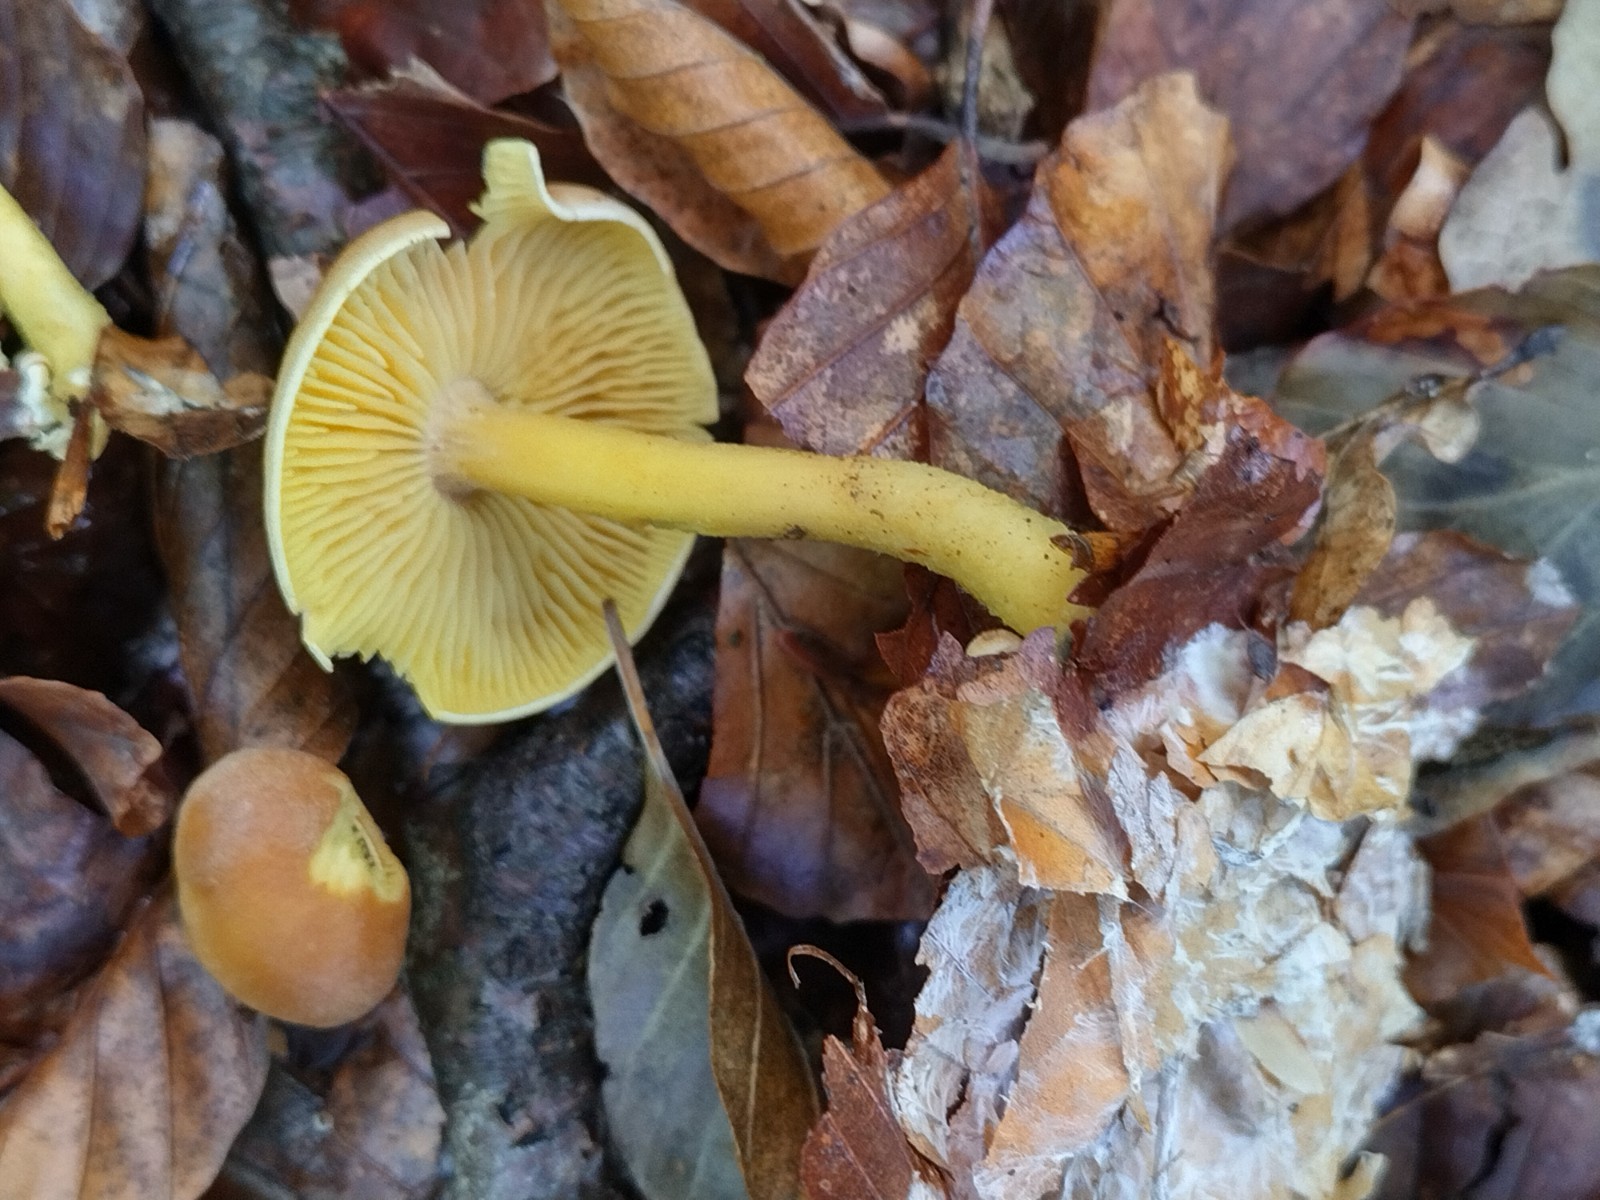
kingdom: Fungi
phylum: Basidiomycota
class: Agaricomycetes
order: Agaricales
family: Tricholomataceae
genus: Tricholoma
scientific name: Tricholoma sulphureum
